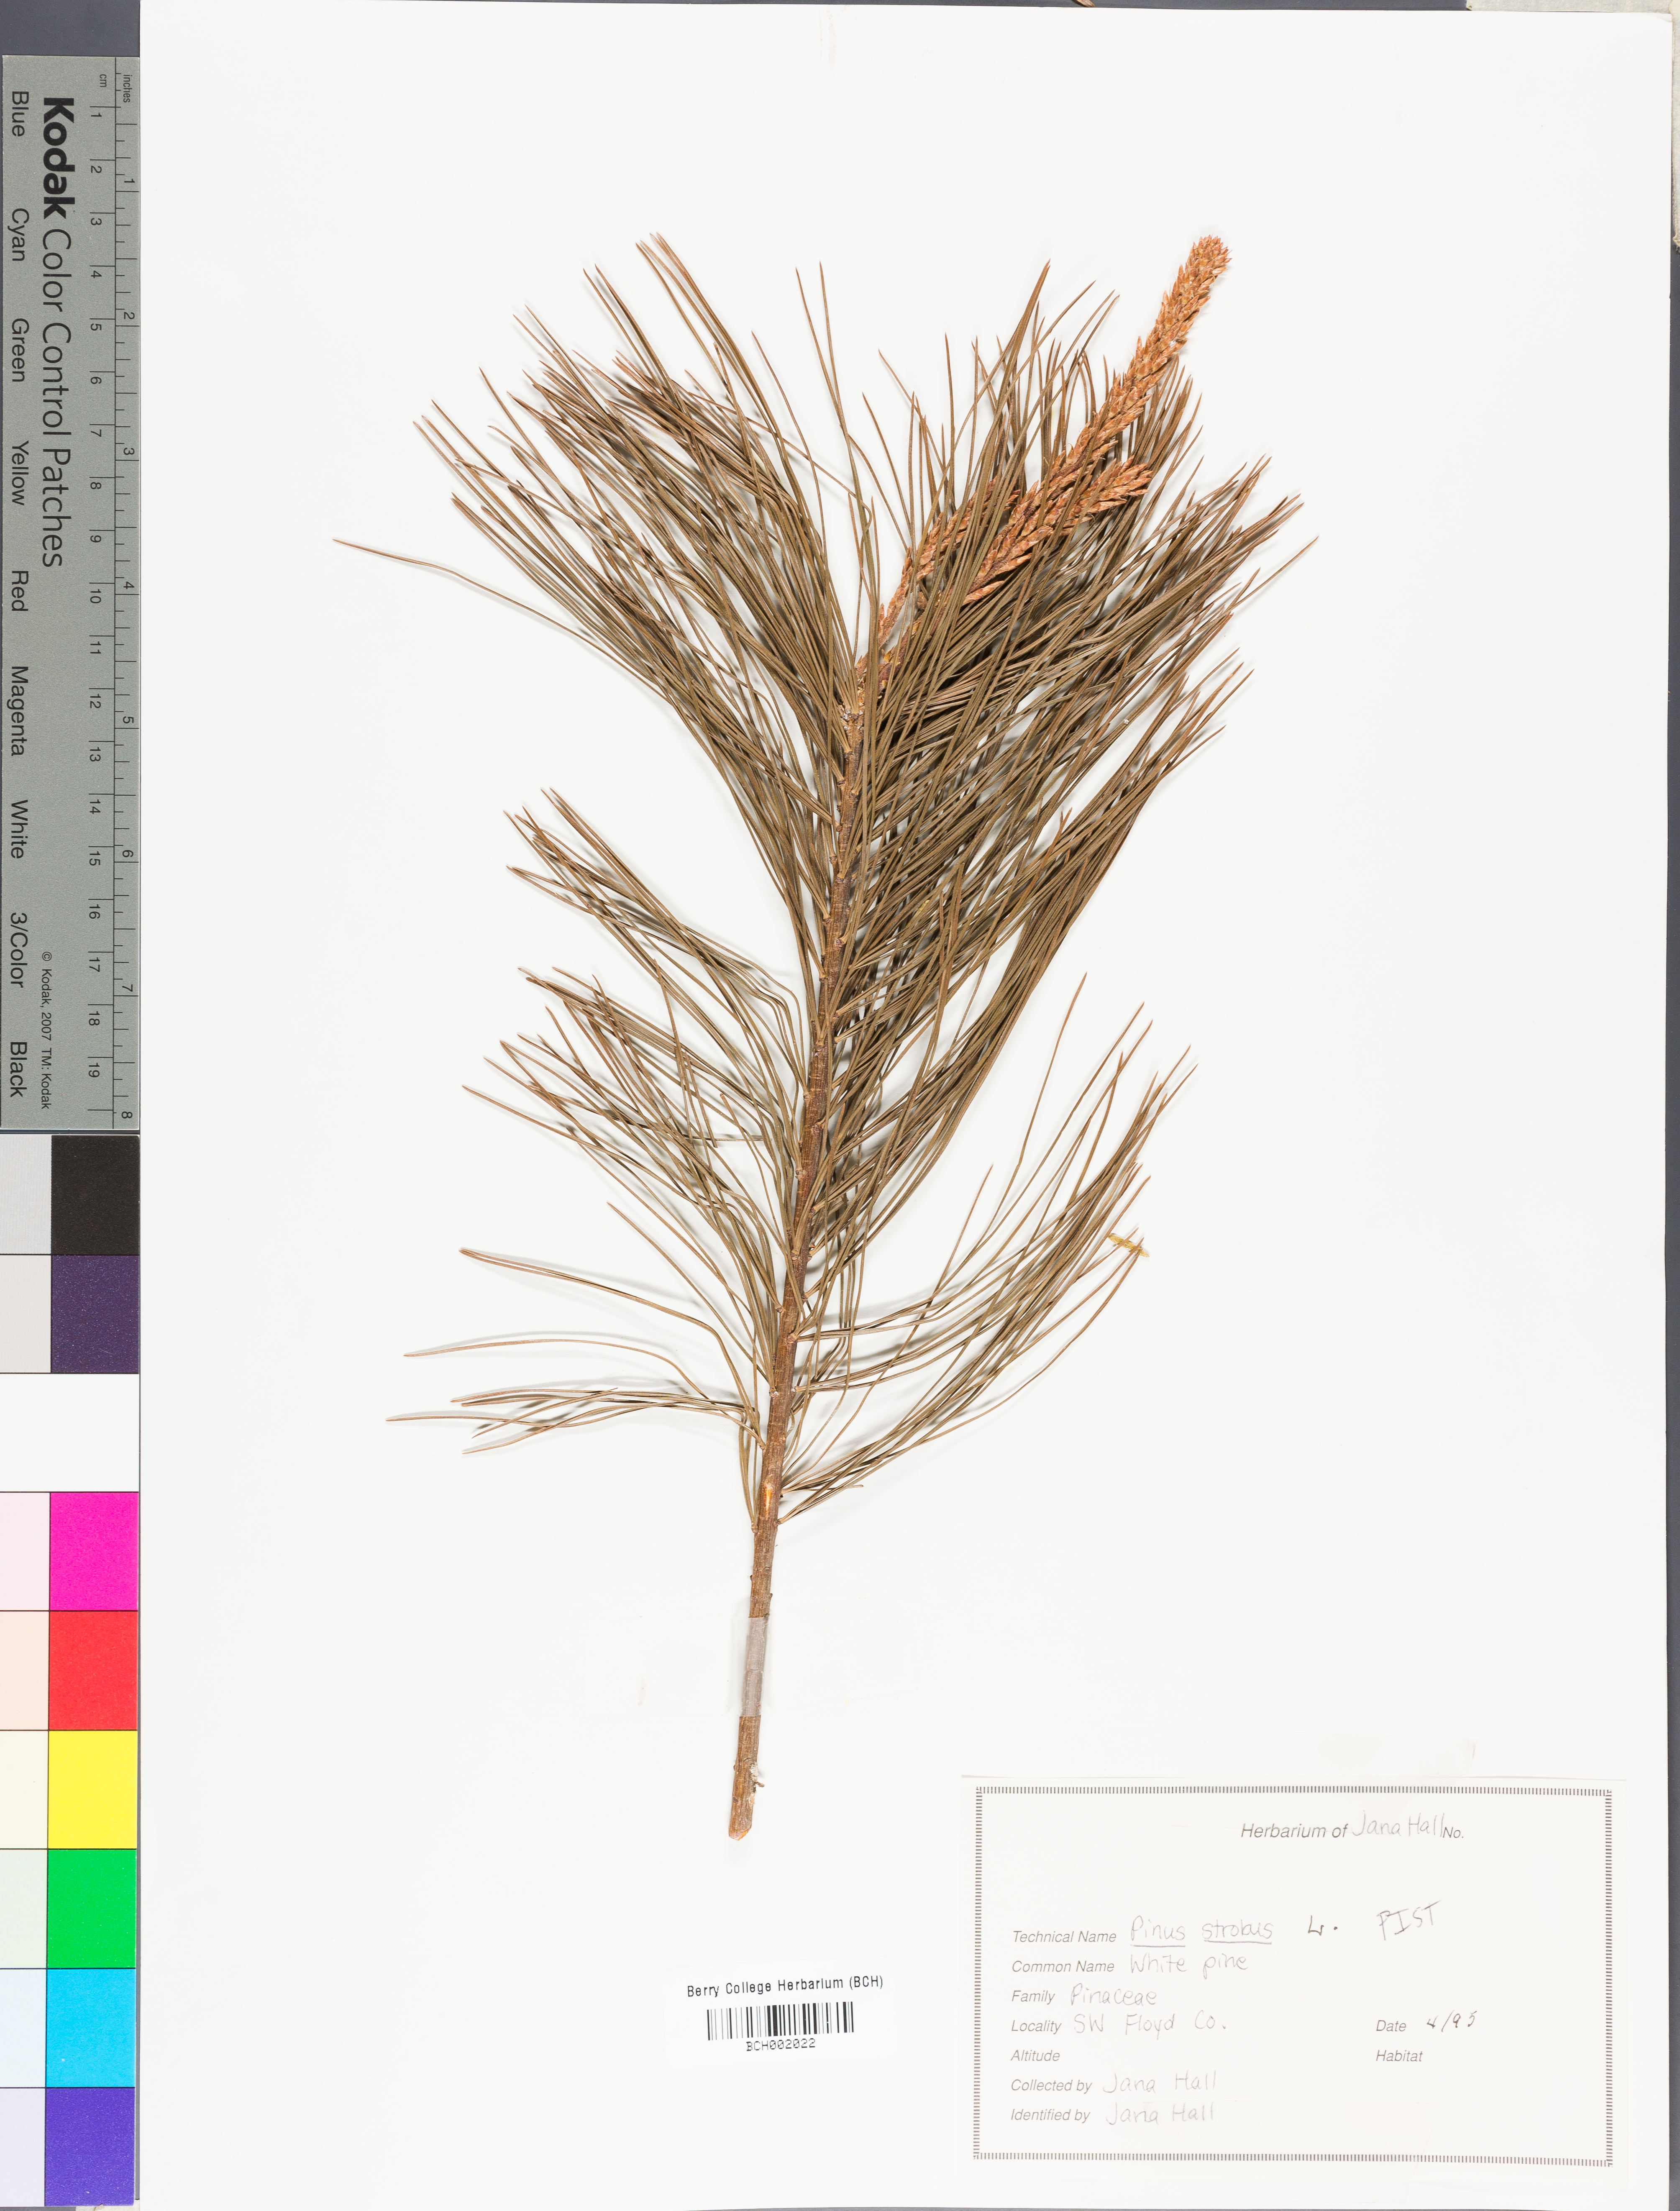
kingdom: Plantae
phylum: Tracheophyta
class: Pinopsida
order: Pinales
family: Pinaceae
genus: Pinus
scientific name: Pinus strobus
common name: Weymouth pine
